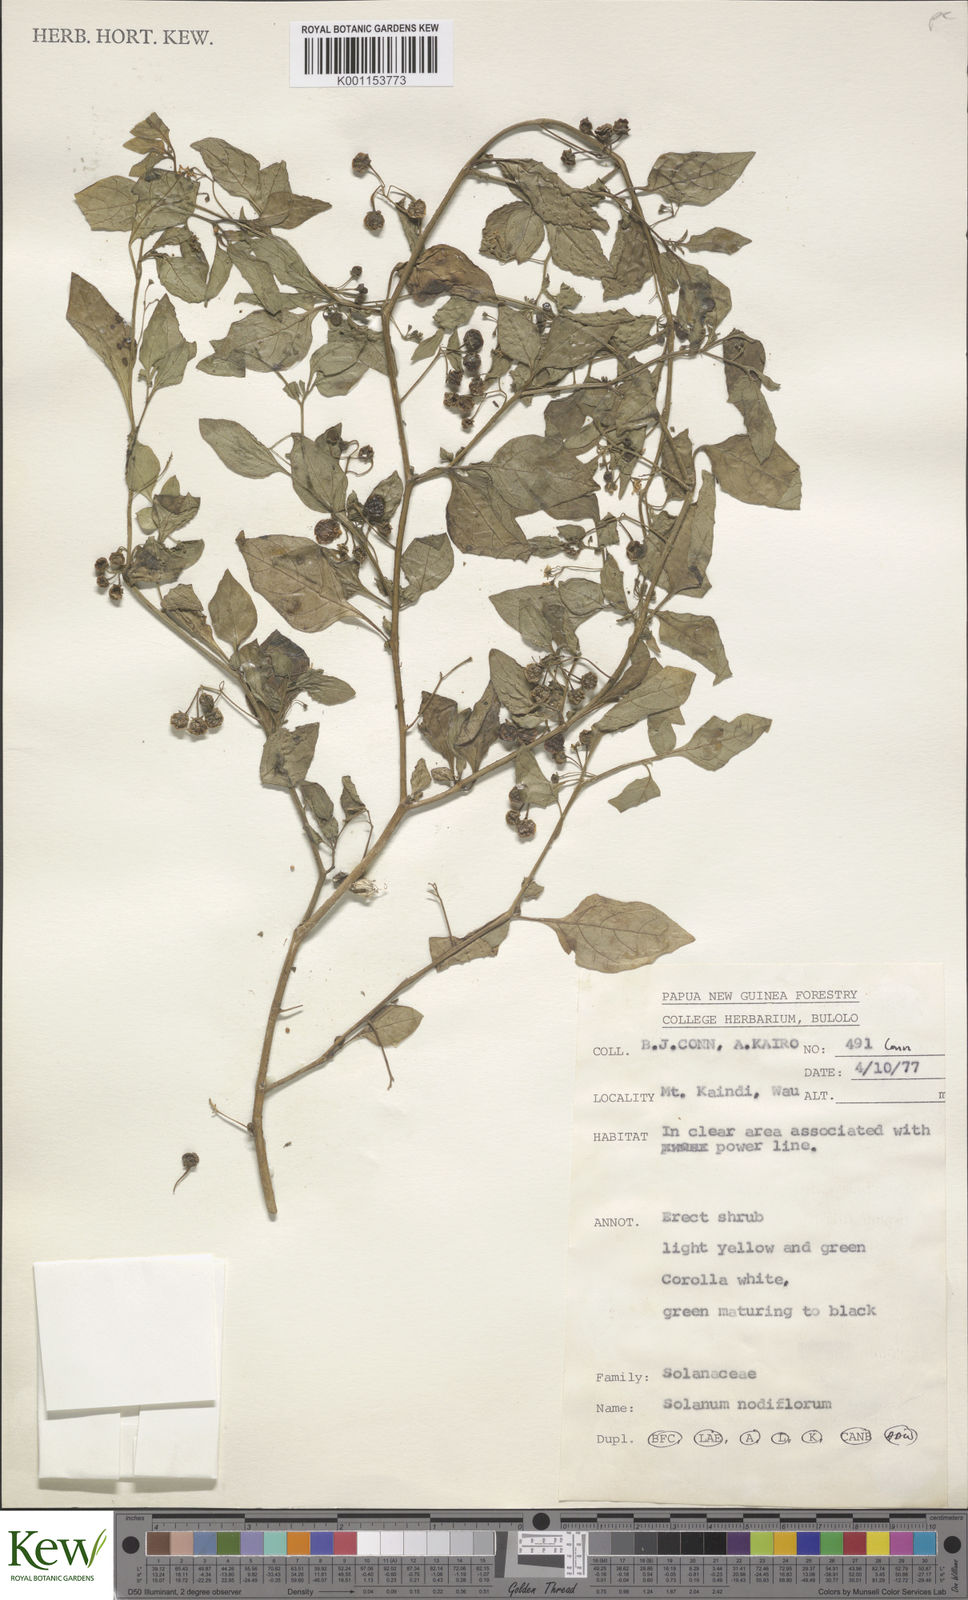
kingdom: Plantae
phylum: Tracheophyta
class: Magnoliopsida
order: Solanales
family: Solanaceae
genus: Solanum
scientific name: Solanum americanum
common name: American black nightshade
